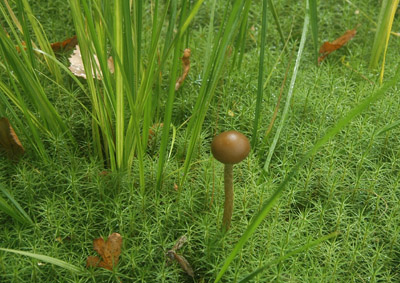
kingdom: Fungi
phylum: Basidiomycota
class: Agaricomycetes
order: Agaricales
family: Strophariaceae
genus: Hypholoma
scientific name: Hypholoma myosotis
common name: slimet svovlhat
